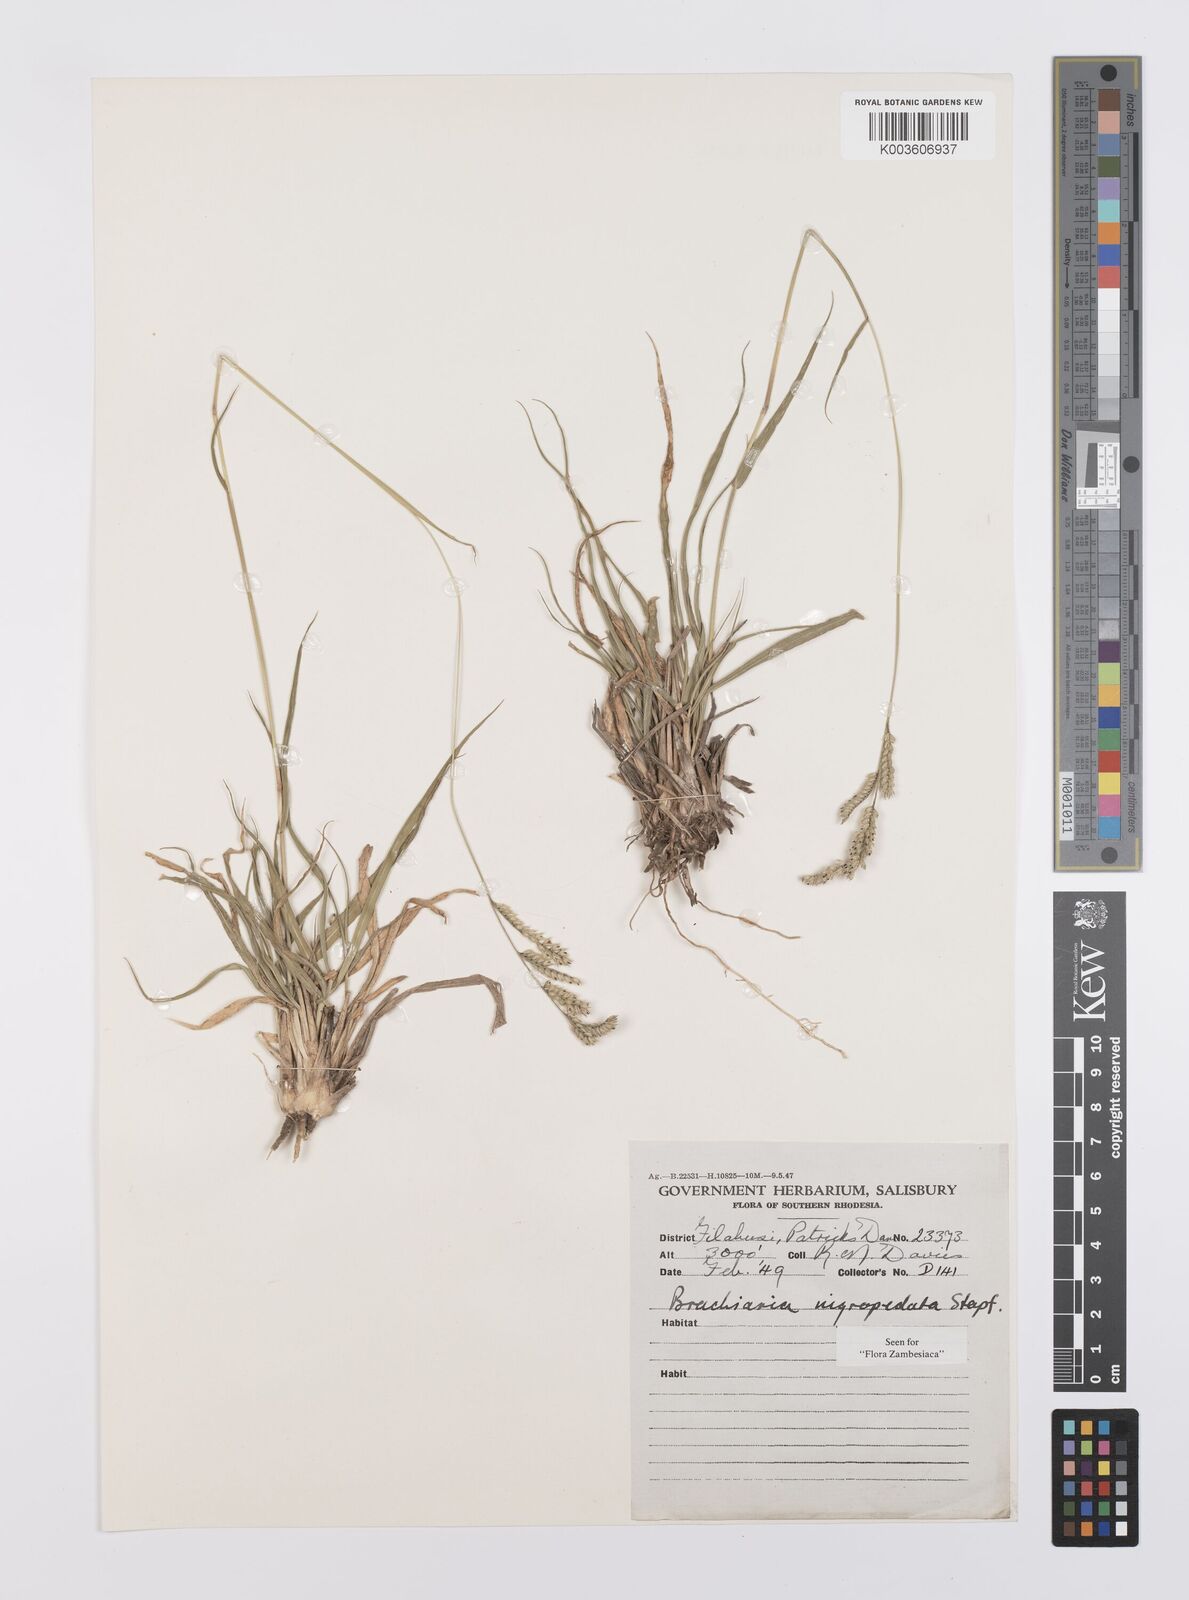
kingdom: Plantae
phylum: Tracheophyta
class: Liliopsida
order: Poales
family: Poaceae
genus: Urochloa
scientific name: Urochloa nigropedata
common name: Spotted signal grass
